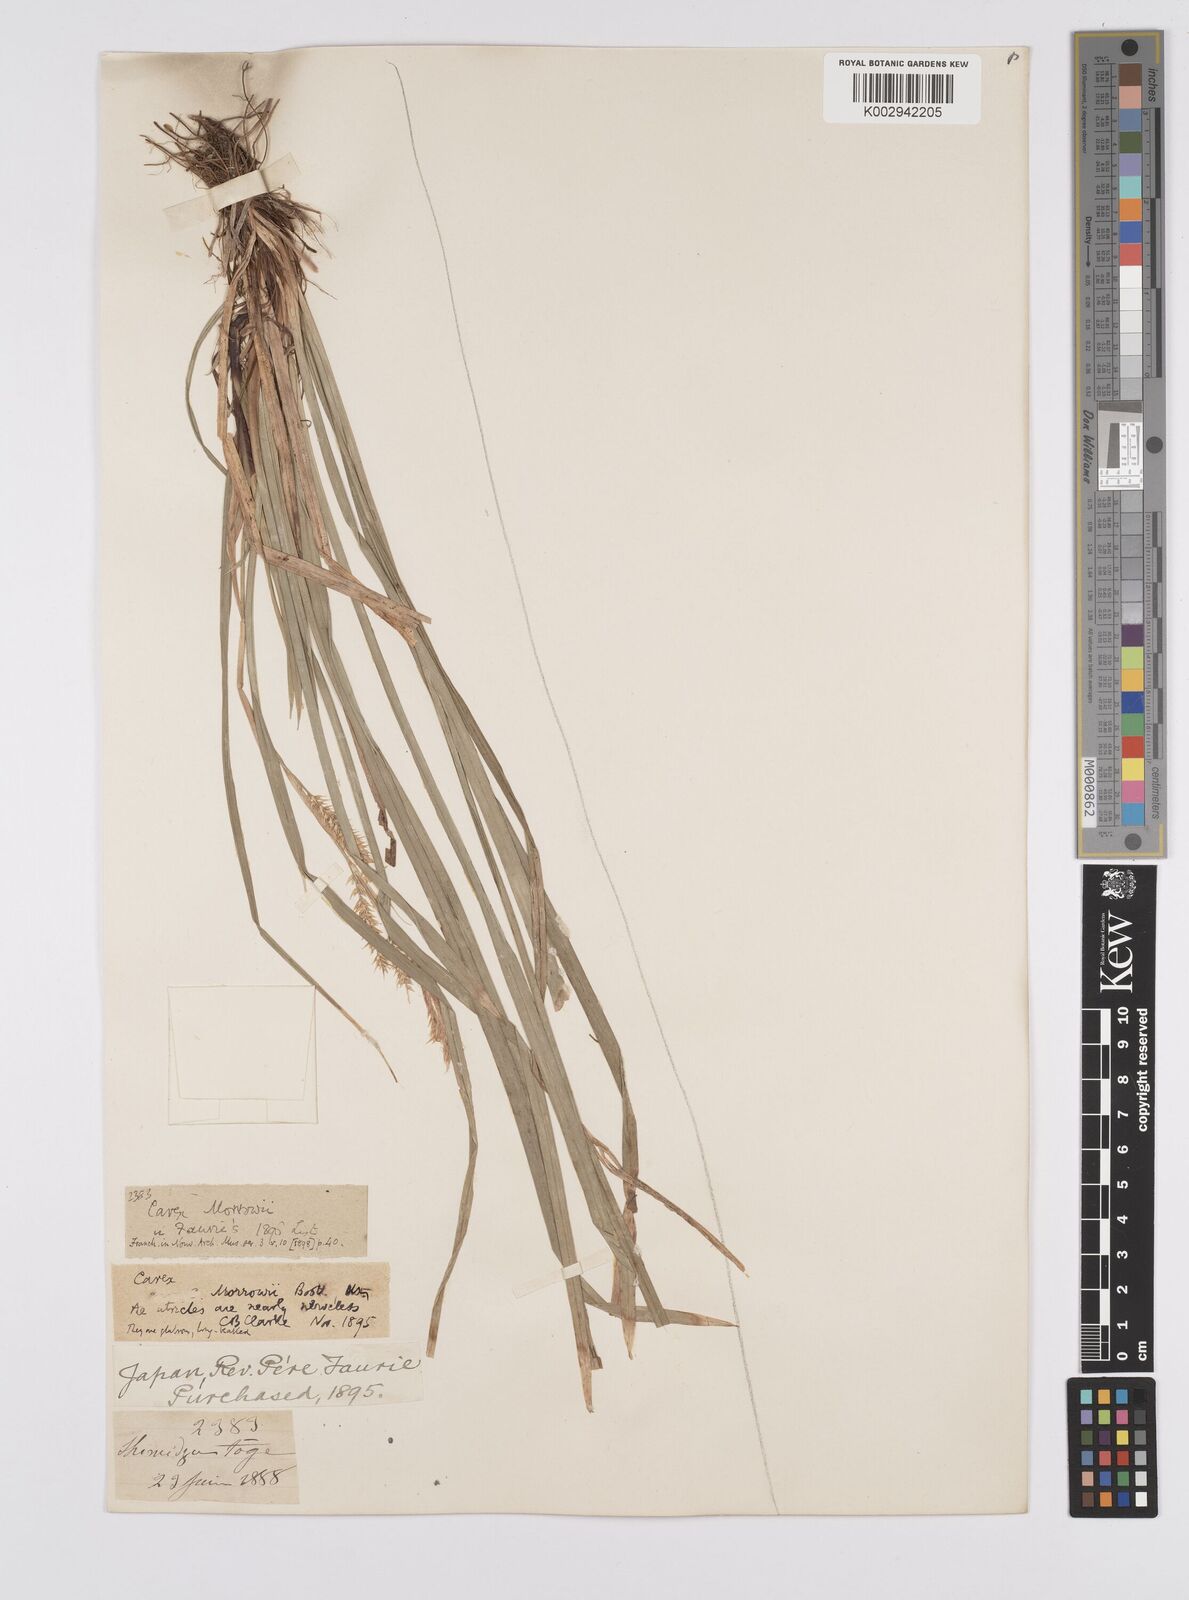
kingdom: Plantae
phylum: Tracheophyta
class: Liliopsida
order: Poales
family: Cyperaceae
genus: Carex
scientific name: Carex morrowii
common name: Japanese sedge
